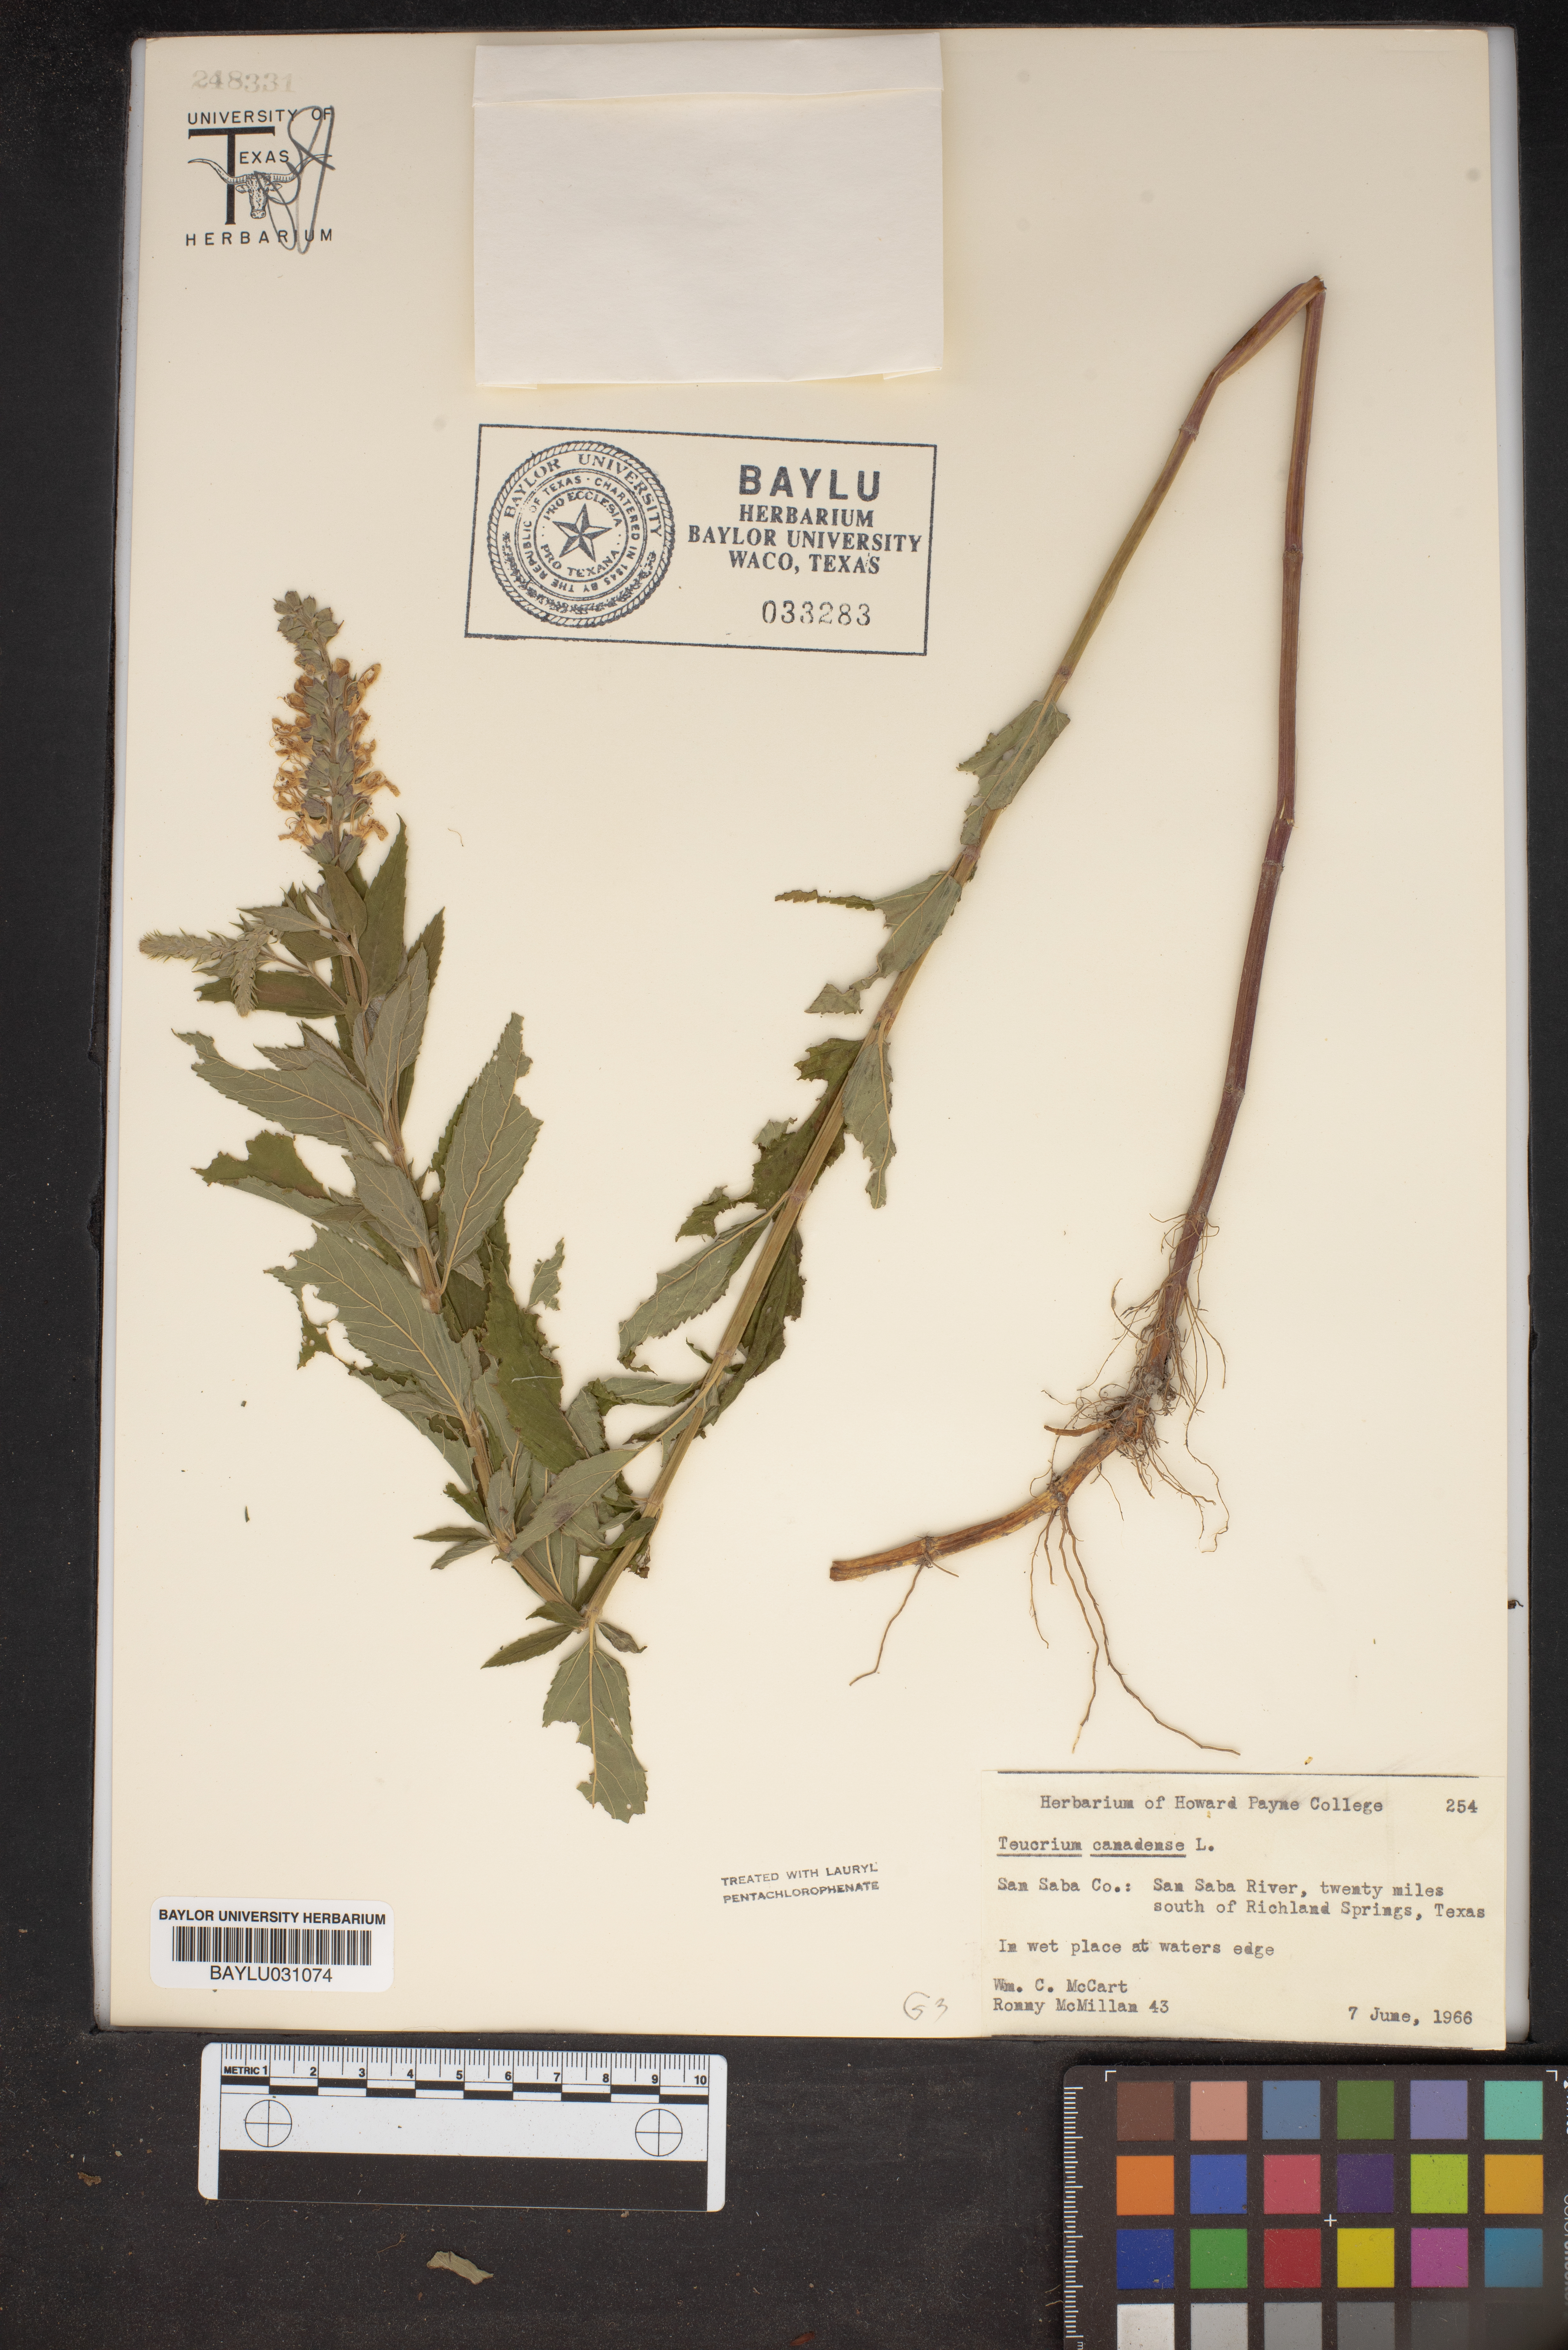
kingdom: Plantae
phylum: Tracheophyta
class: Magnoliopsida
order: Lamiales
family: Lamiaceae
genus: Teucrium
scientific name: Teucrium canadense
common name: American germander
